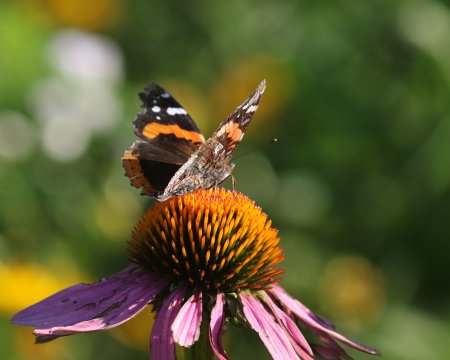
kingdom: Animalia
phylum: Arthropoda
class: Insecta
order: Lepidoptera
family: Nymphalidae
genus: Vanessa
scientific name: Vanessa atalanta
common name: Red Admiral
